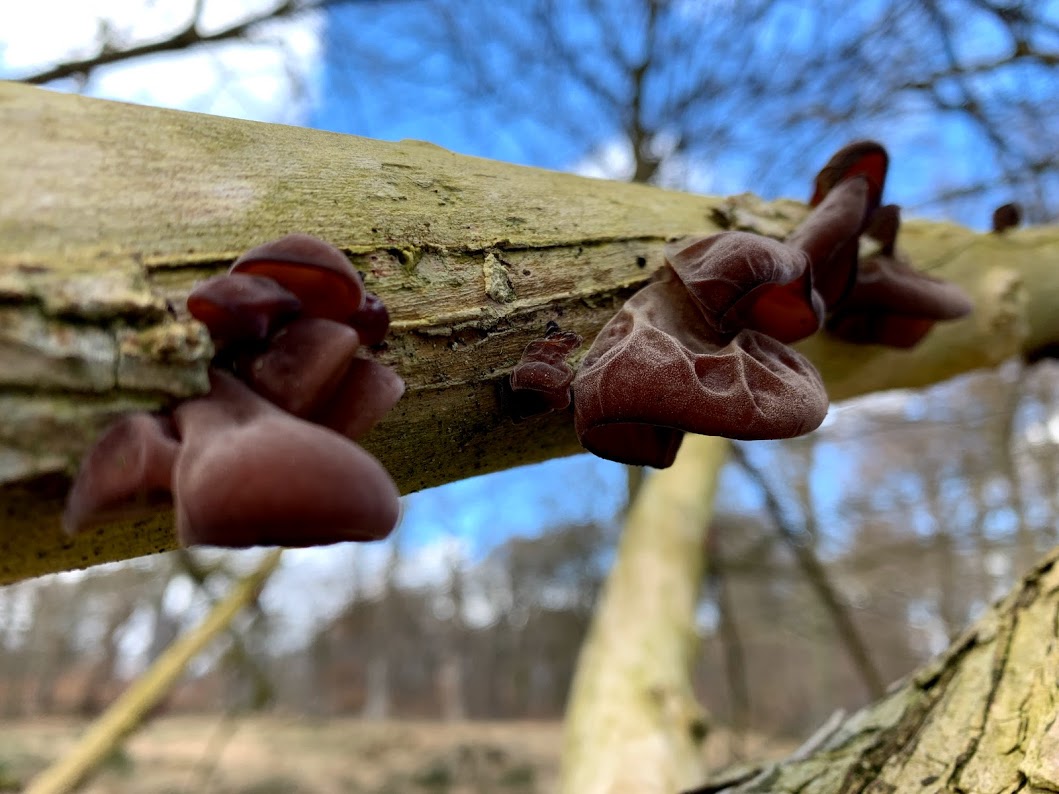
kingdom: Fungi
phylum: Basidiomycota
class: Agaricomycetes
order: Auriculariales
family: Auriculariaceae
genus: Auricularia
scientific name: Auricularia auricula-judae
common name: almindelig judasøre
